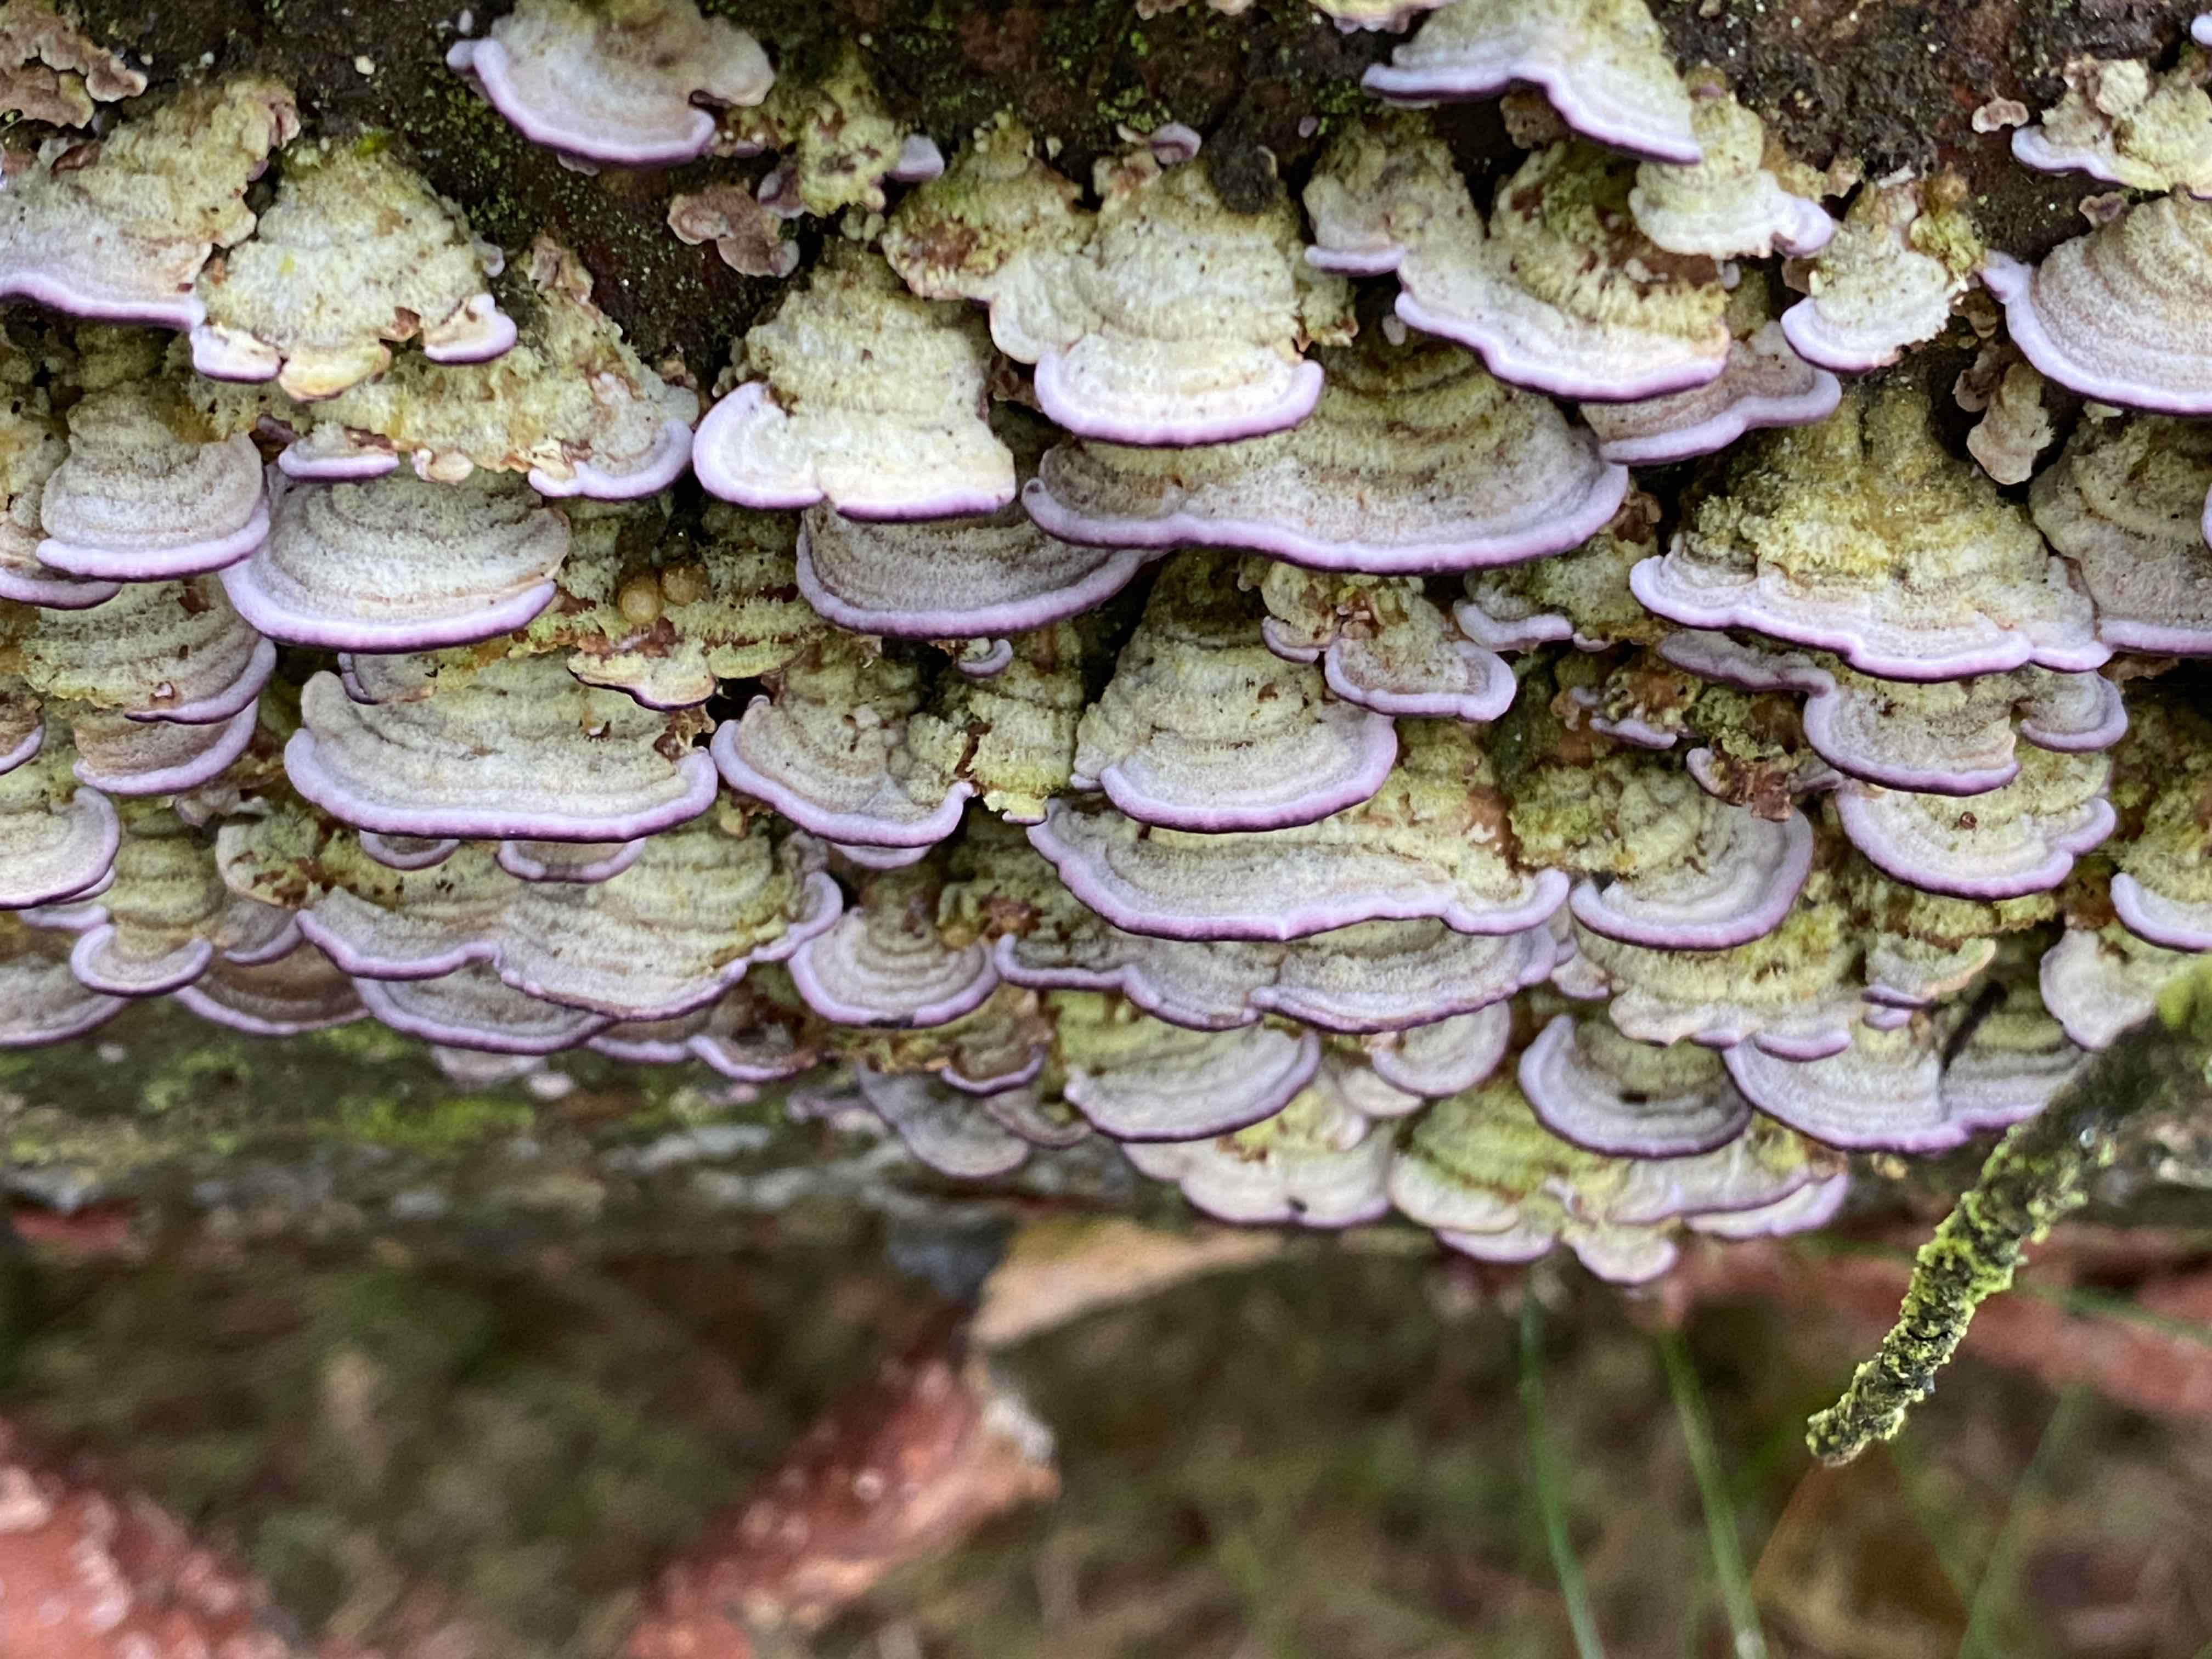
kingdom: Fungi
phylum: Basidiomycota
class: Agaricomycetes
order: Hymenochaetales
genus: Trichaptum
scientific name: Trichaptum abietinum
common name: almindelig violporesvamp
